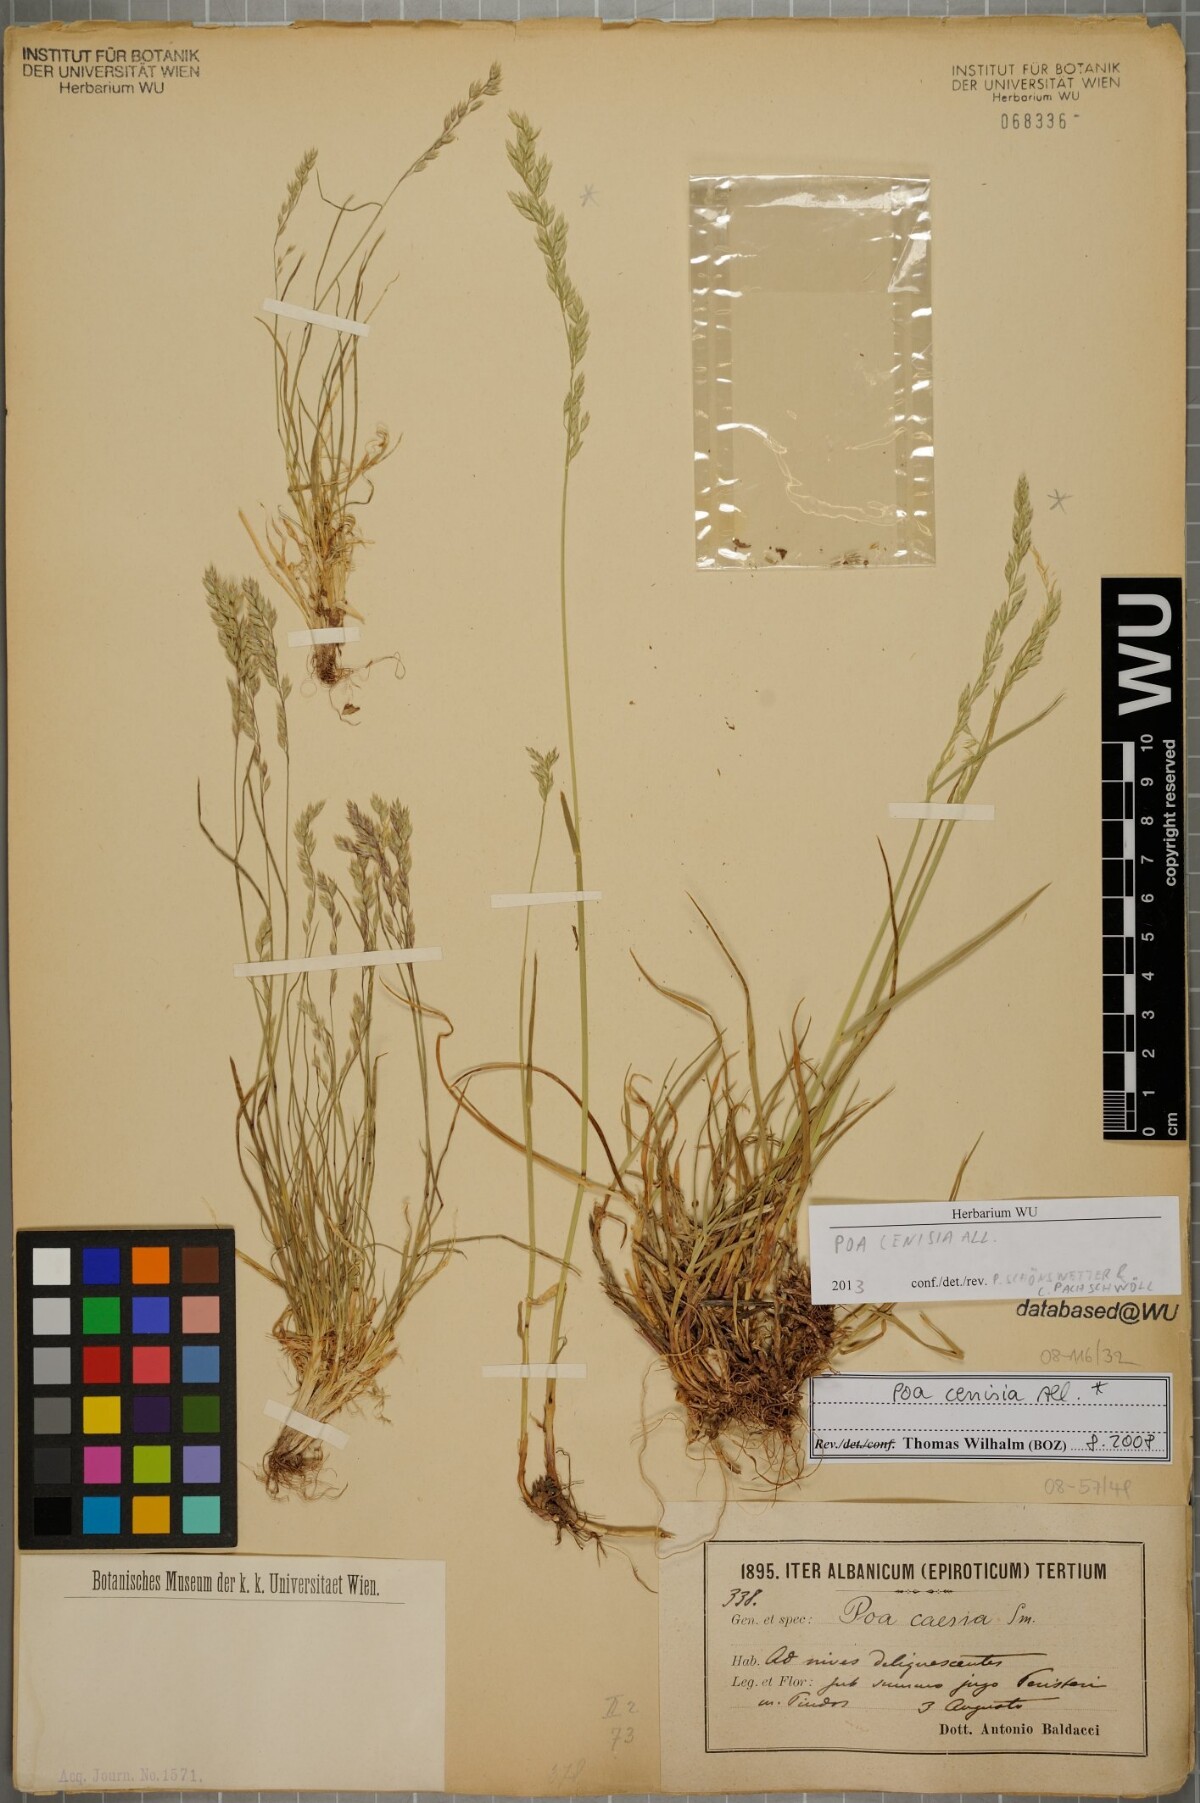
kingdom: Plantae
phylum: Tracheophyta
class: Liliopsida
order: Poales
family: Poaceae
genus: Poa
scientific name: Poa cenisia
